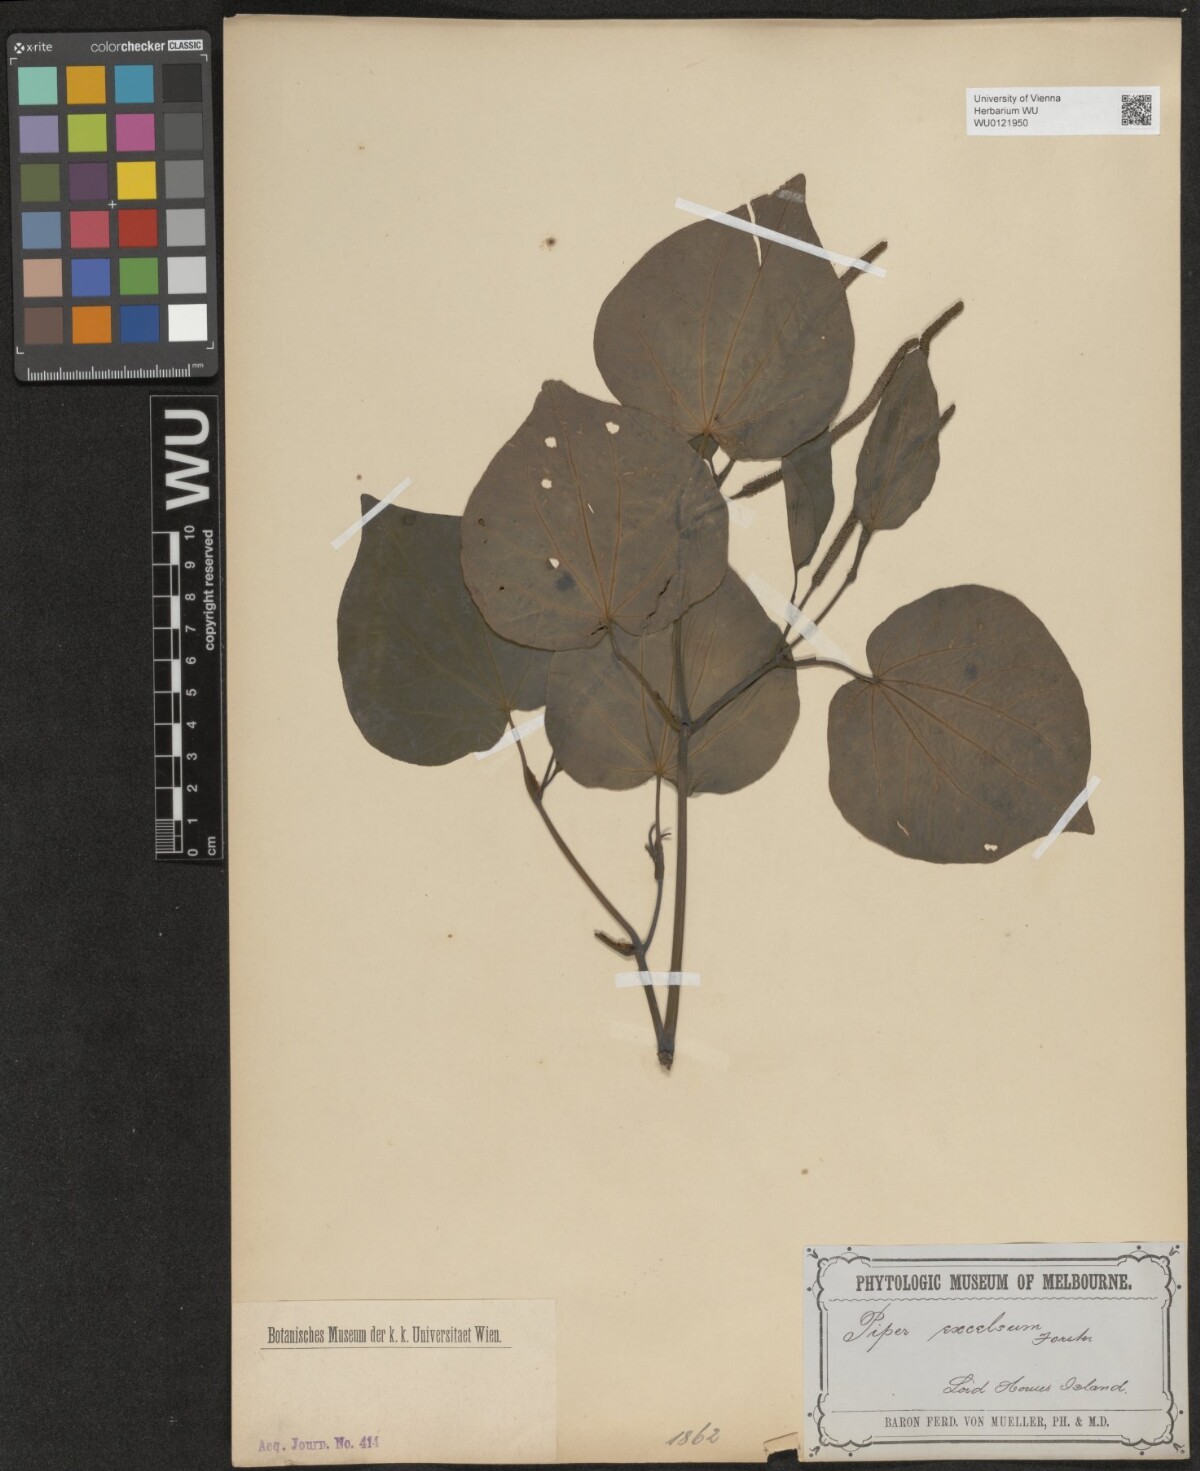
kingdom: Plantae
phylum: Tracheophyta
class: Magnoliopsida
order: Piperales
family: Piperaceae
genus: Macropiper
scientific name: Macropiper excelsum
